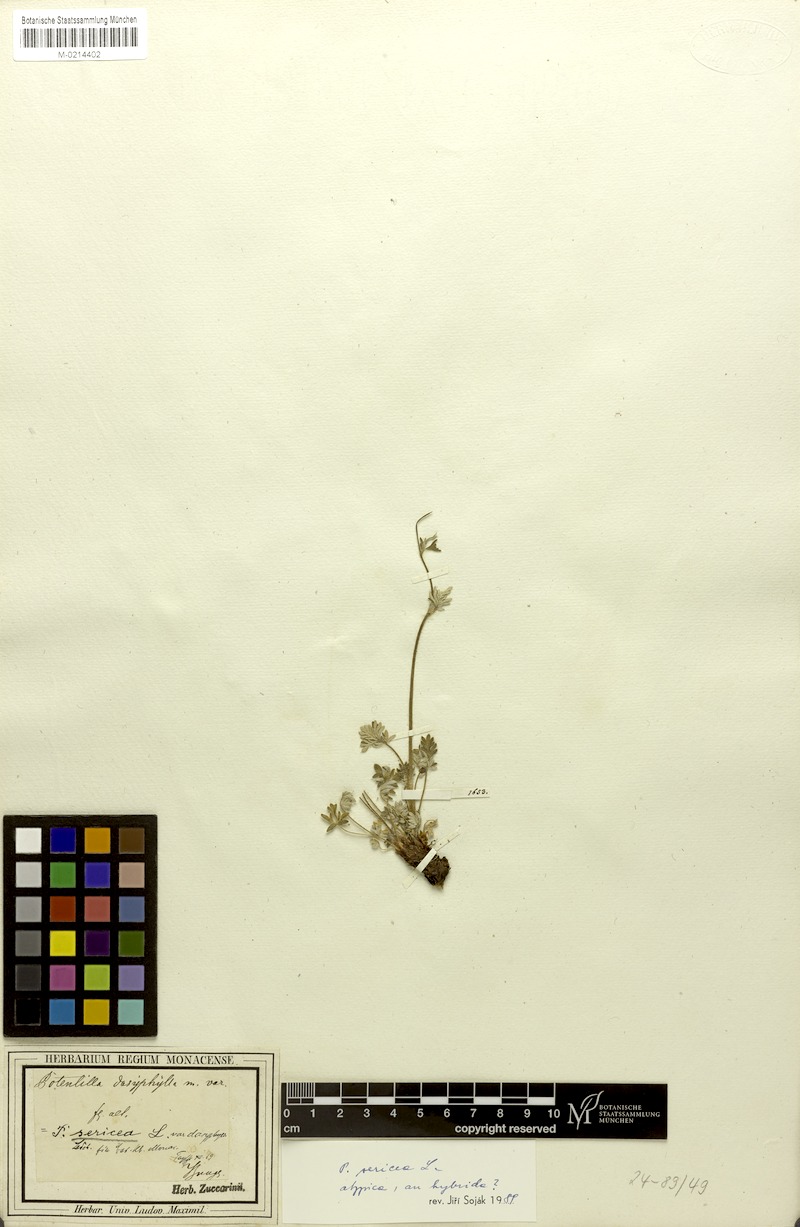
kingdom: Plantae
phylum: Tracheophyta
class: Magnoliopsida
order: Rosales
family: Rosaceae
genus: Potentilla
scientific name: Potentilla sericea
